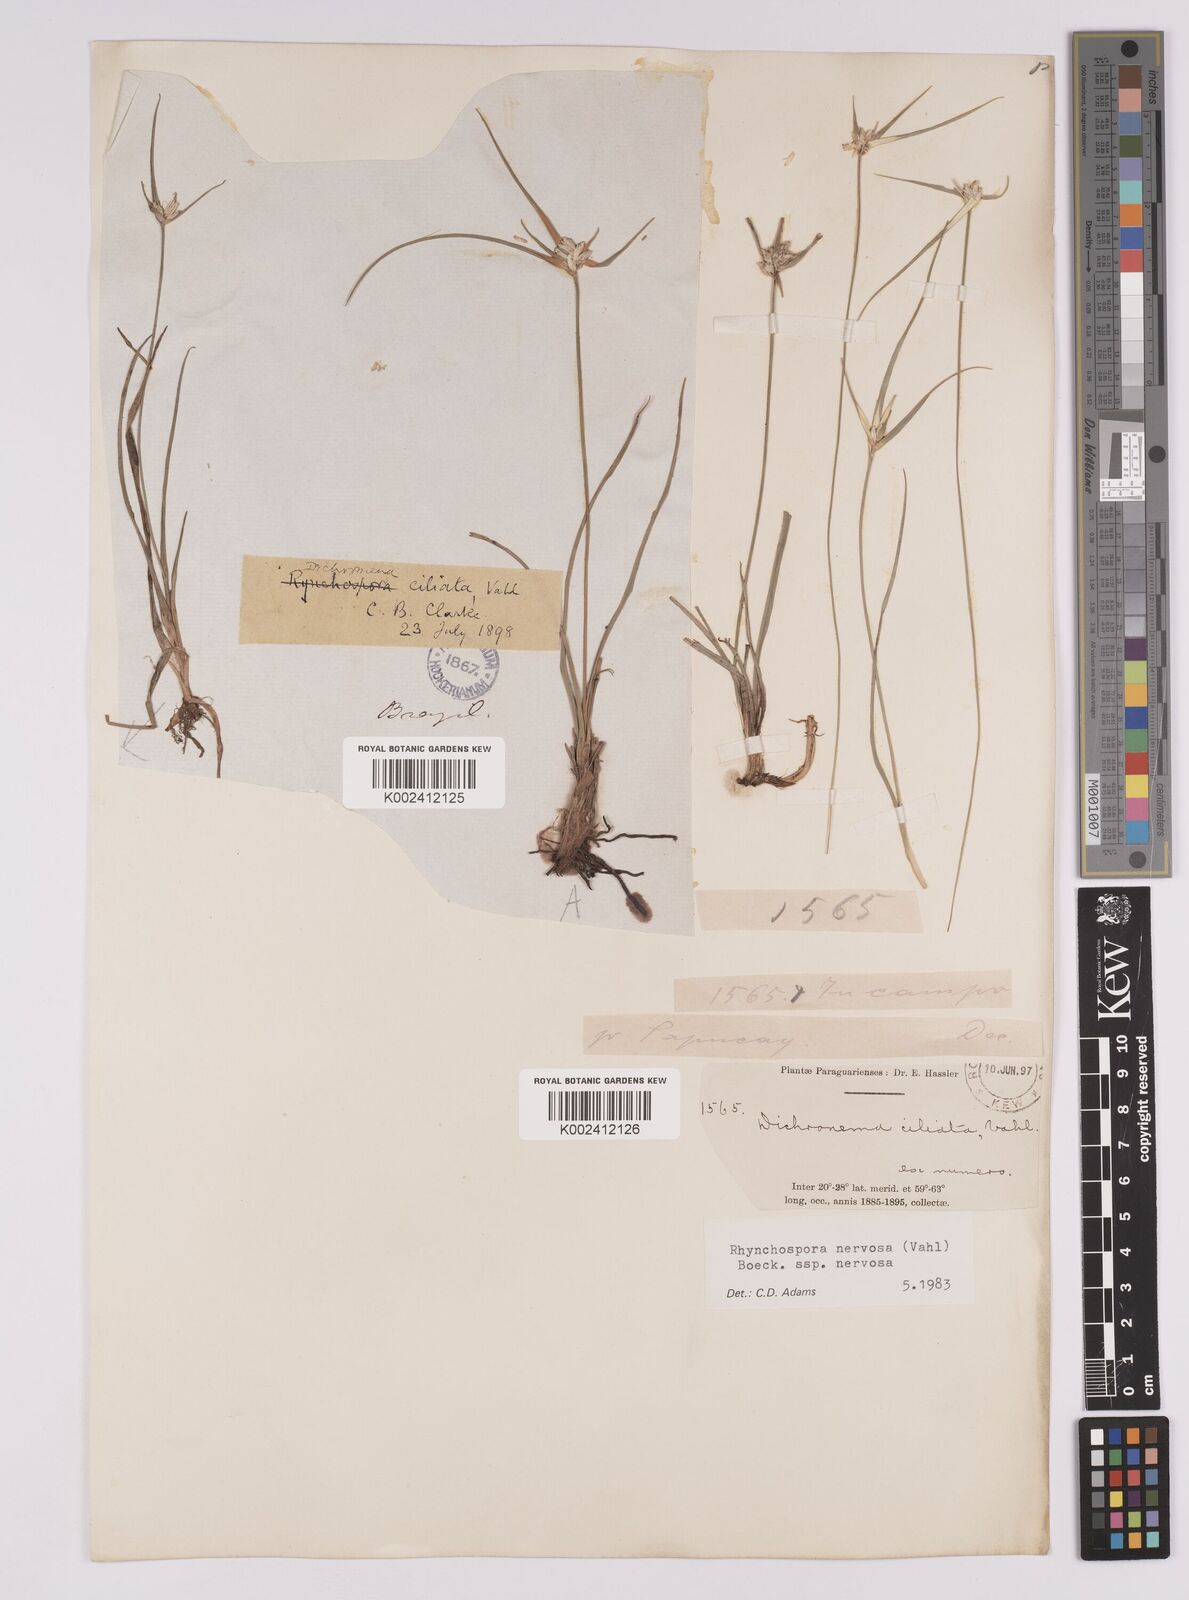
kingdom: Plantae
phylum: Tracheophyta
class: Liliopsida
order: Poales
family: Cyperaceae
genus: Rhynchospora
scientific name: Rhynchospora nervosa
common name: Star sedge
